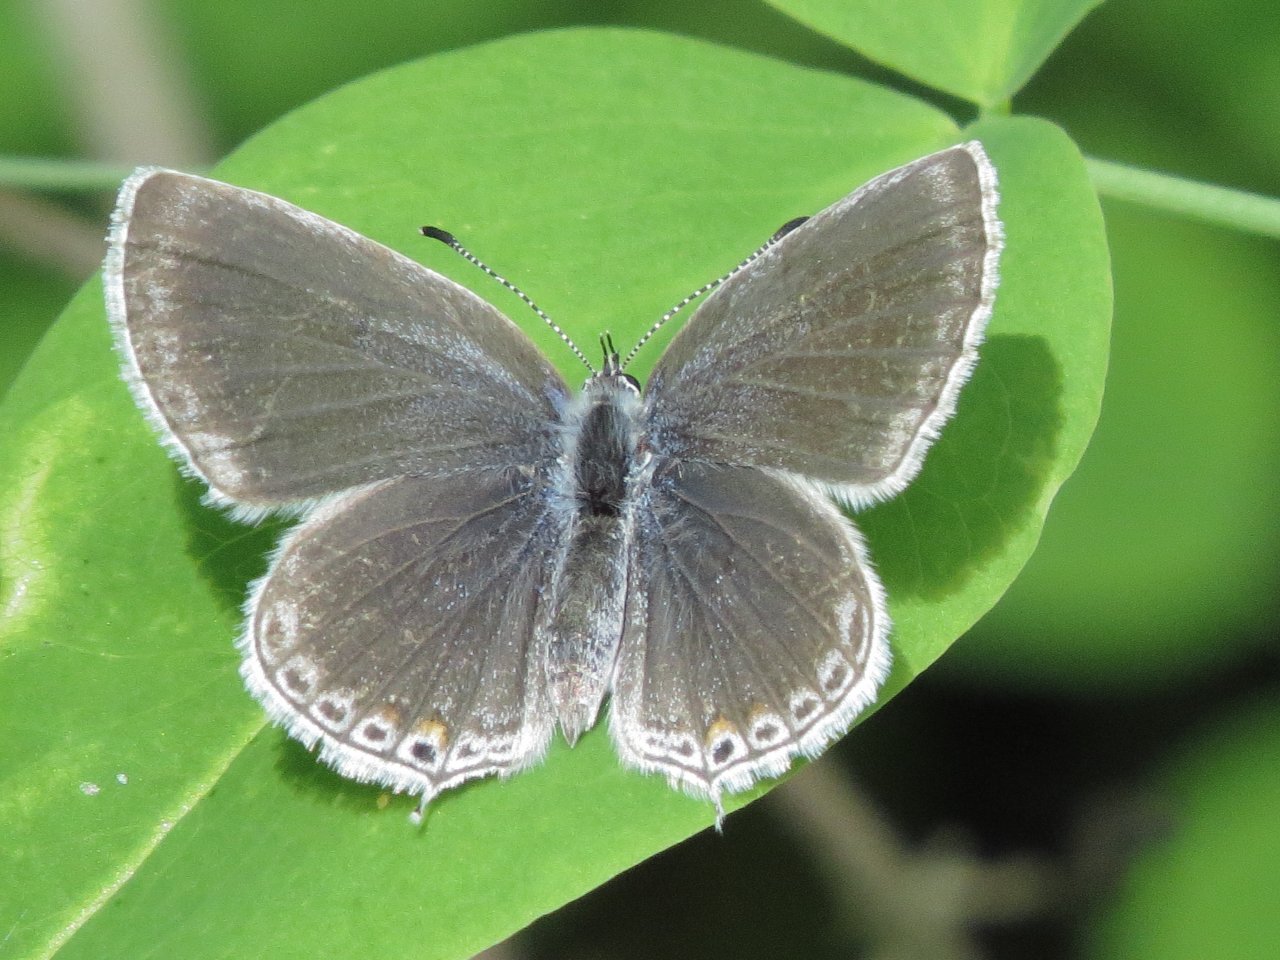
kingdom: Animalia
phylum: Arthropoda
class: Insecta
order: Lepidoptera
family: Lycaenidae
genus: Elkalyce
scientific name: Elkalyce amyntula
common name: Western Tailed-Blue
